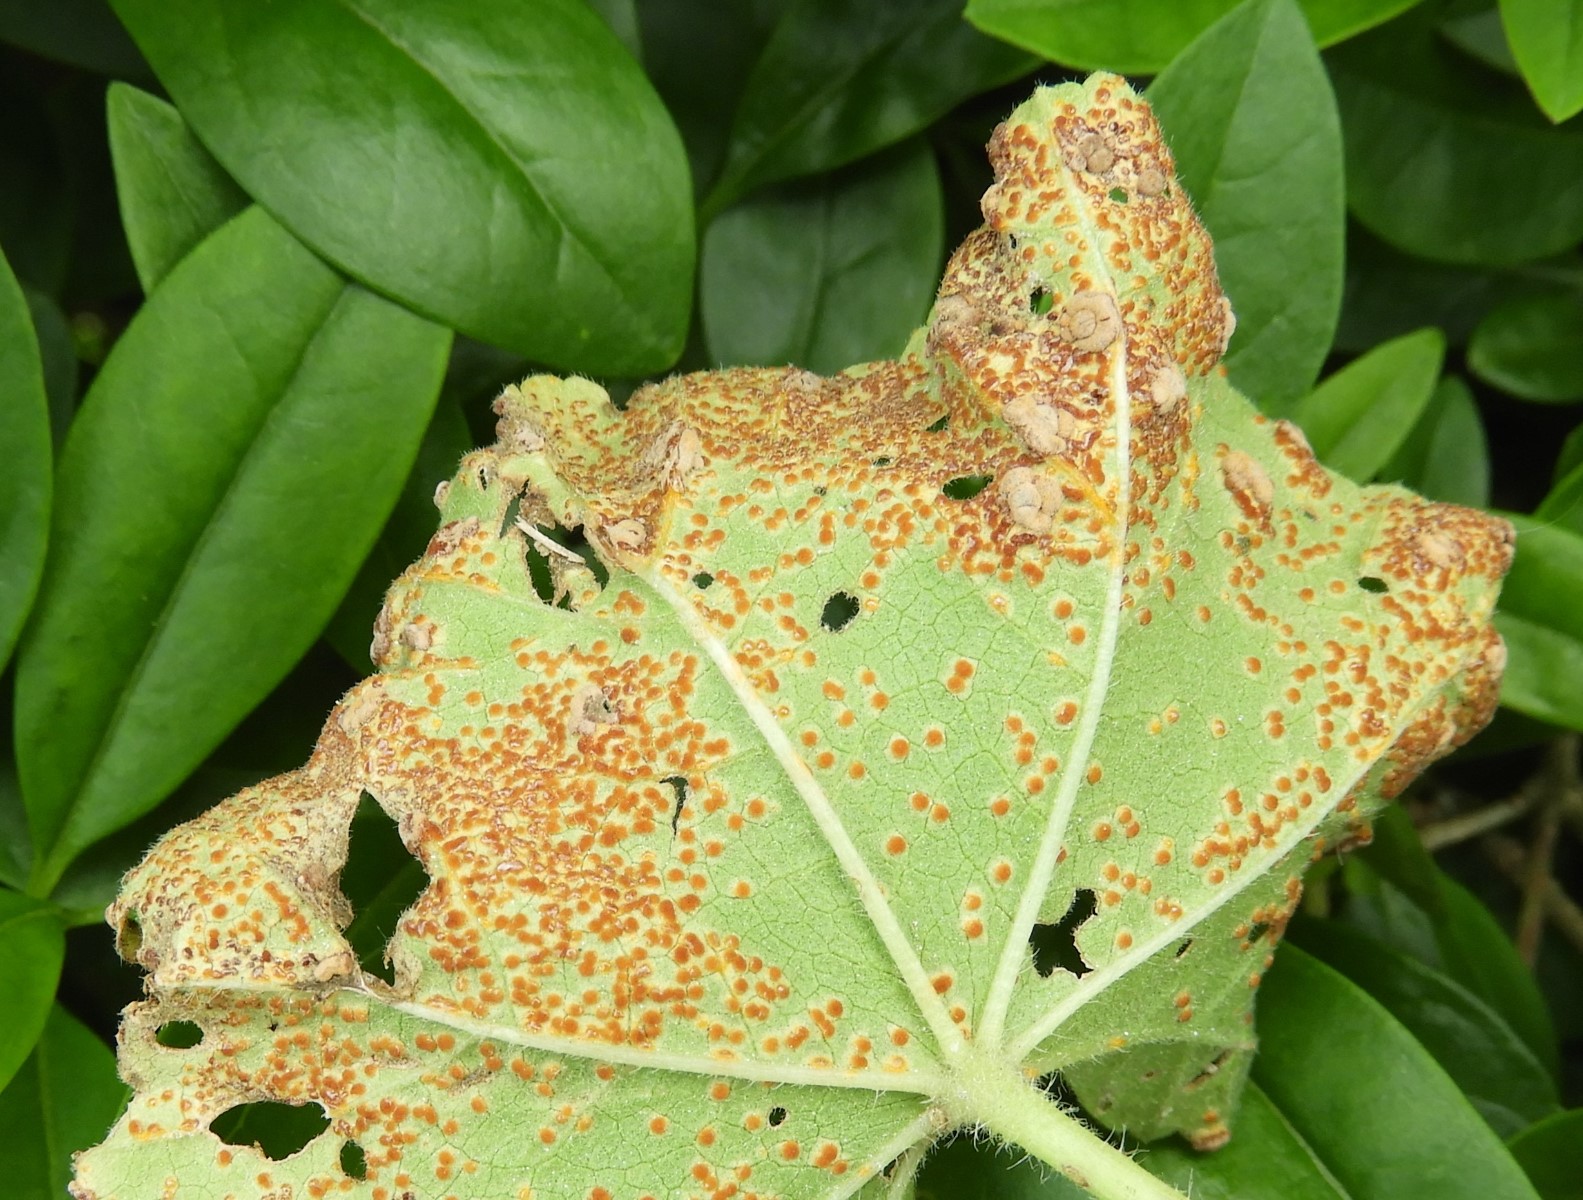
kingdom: Fungi
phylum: Basidiomycota
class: Pucciniomycetes
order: Pucciniales
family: Pucciniaceae
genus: Puccinia
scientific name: Puccinia malvacearum
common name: stokrose-tvecellerust
